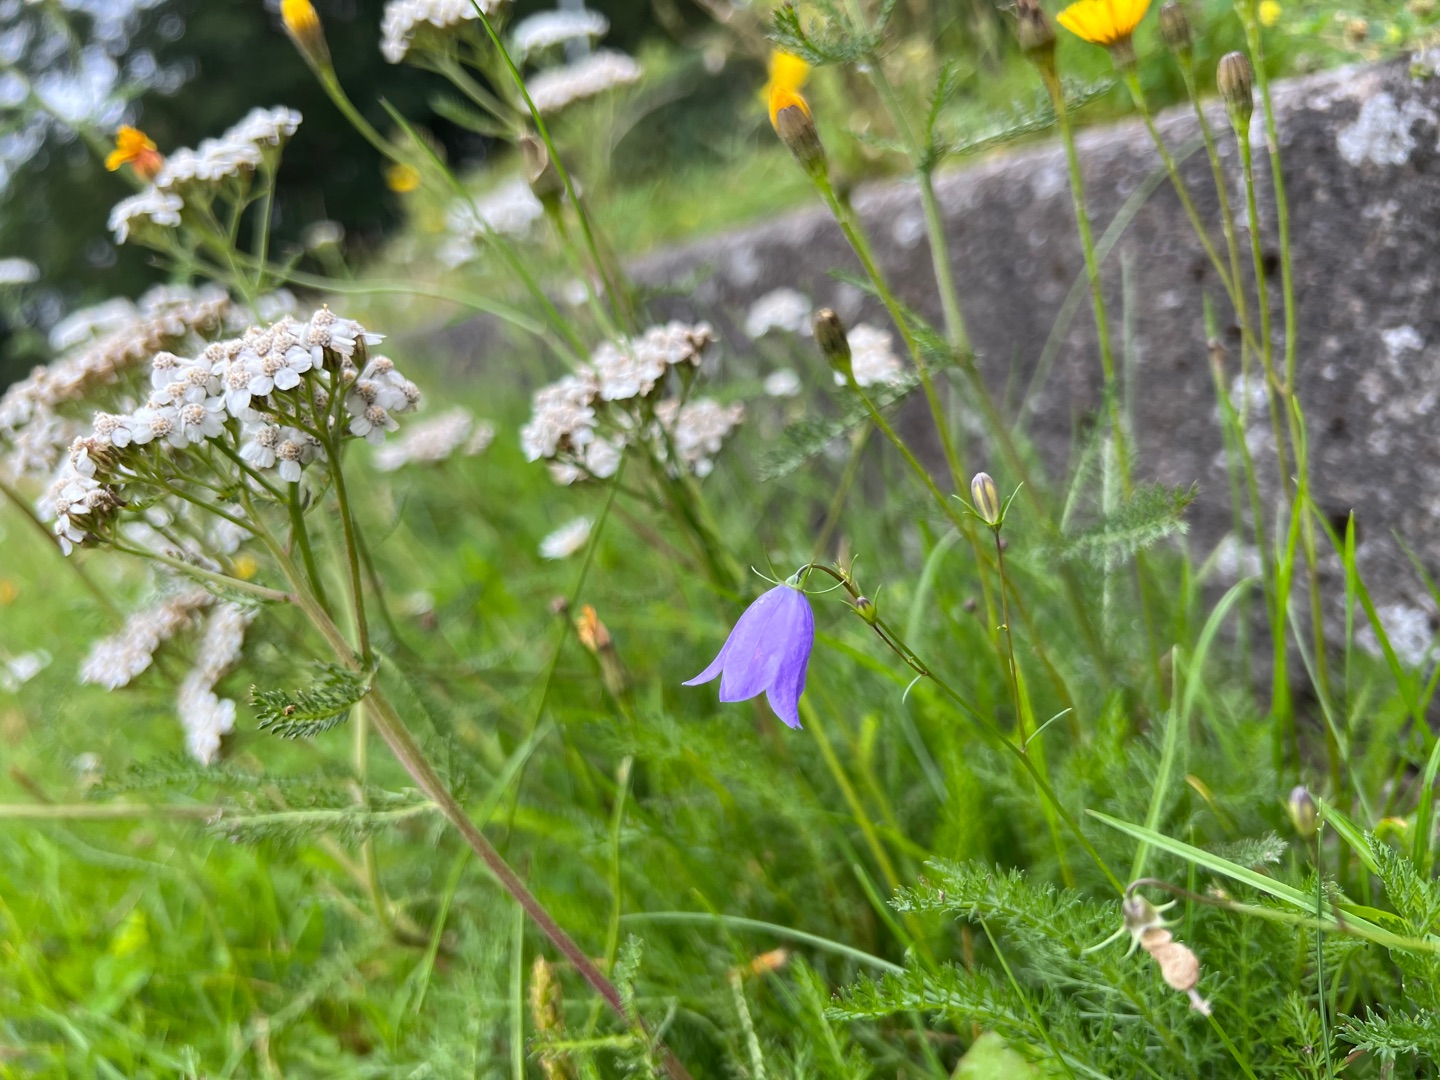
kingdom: Plantae
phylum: Tracheophyta
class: Magnoliopsida
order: Asterales
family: Campanulaceae
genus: Campanula
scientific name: Campanula rotundifolia
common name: Liden klokke
